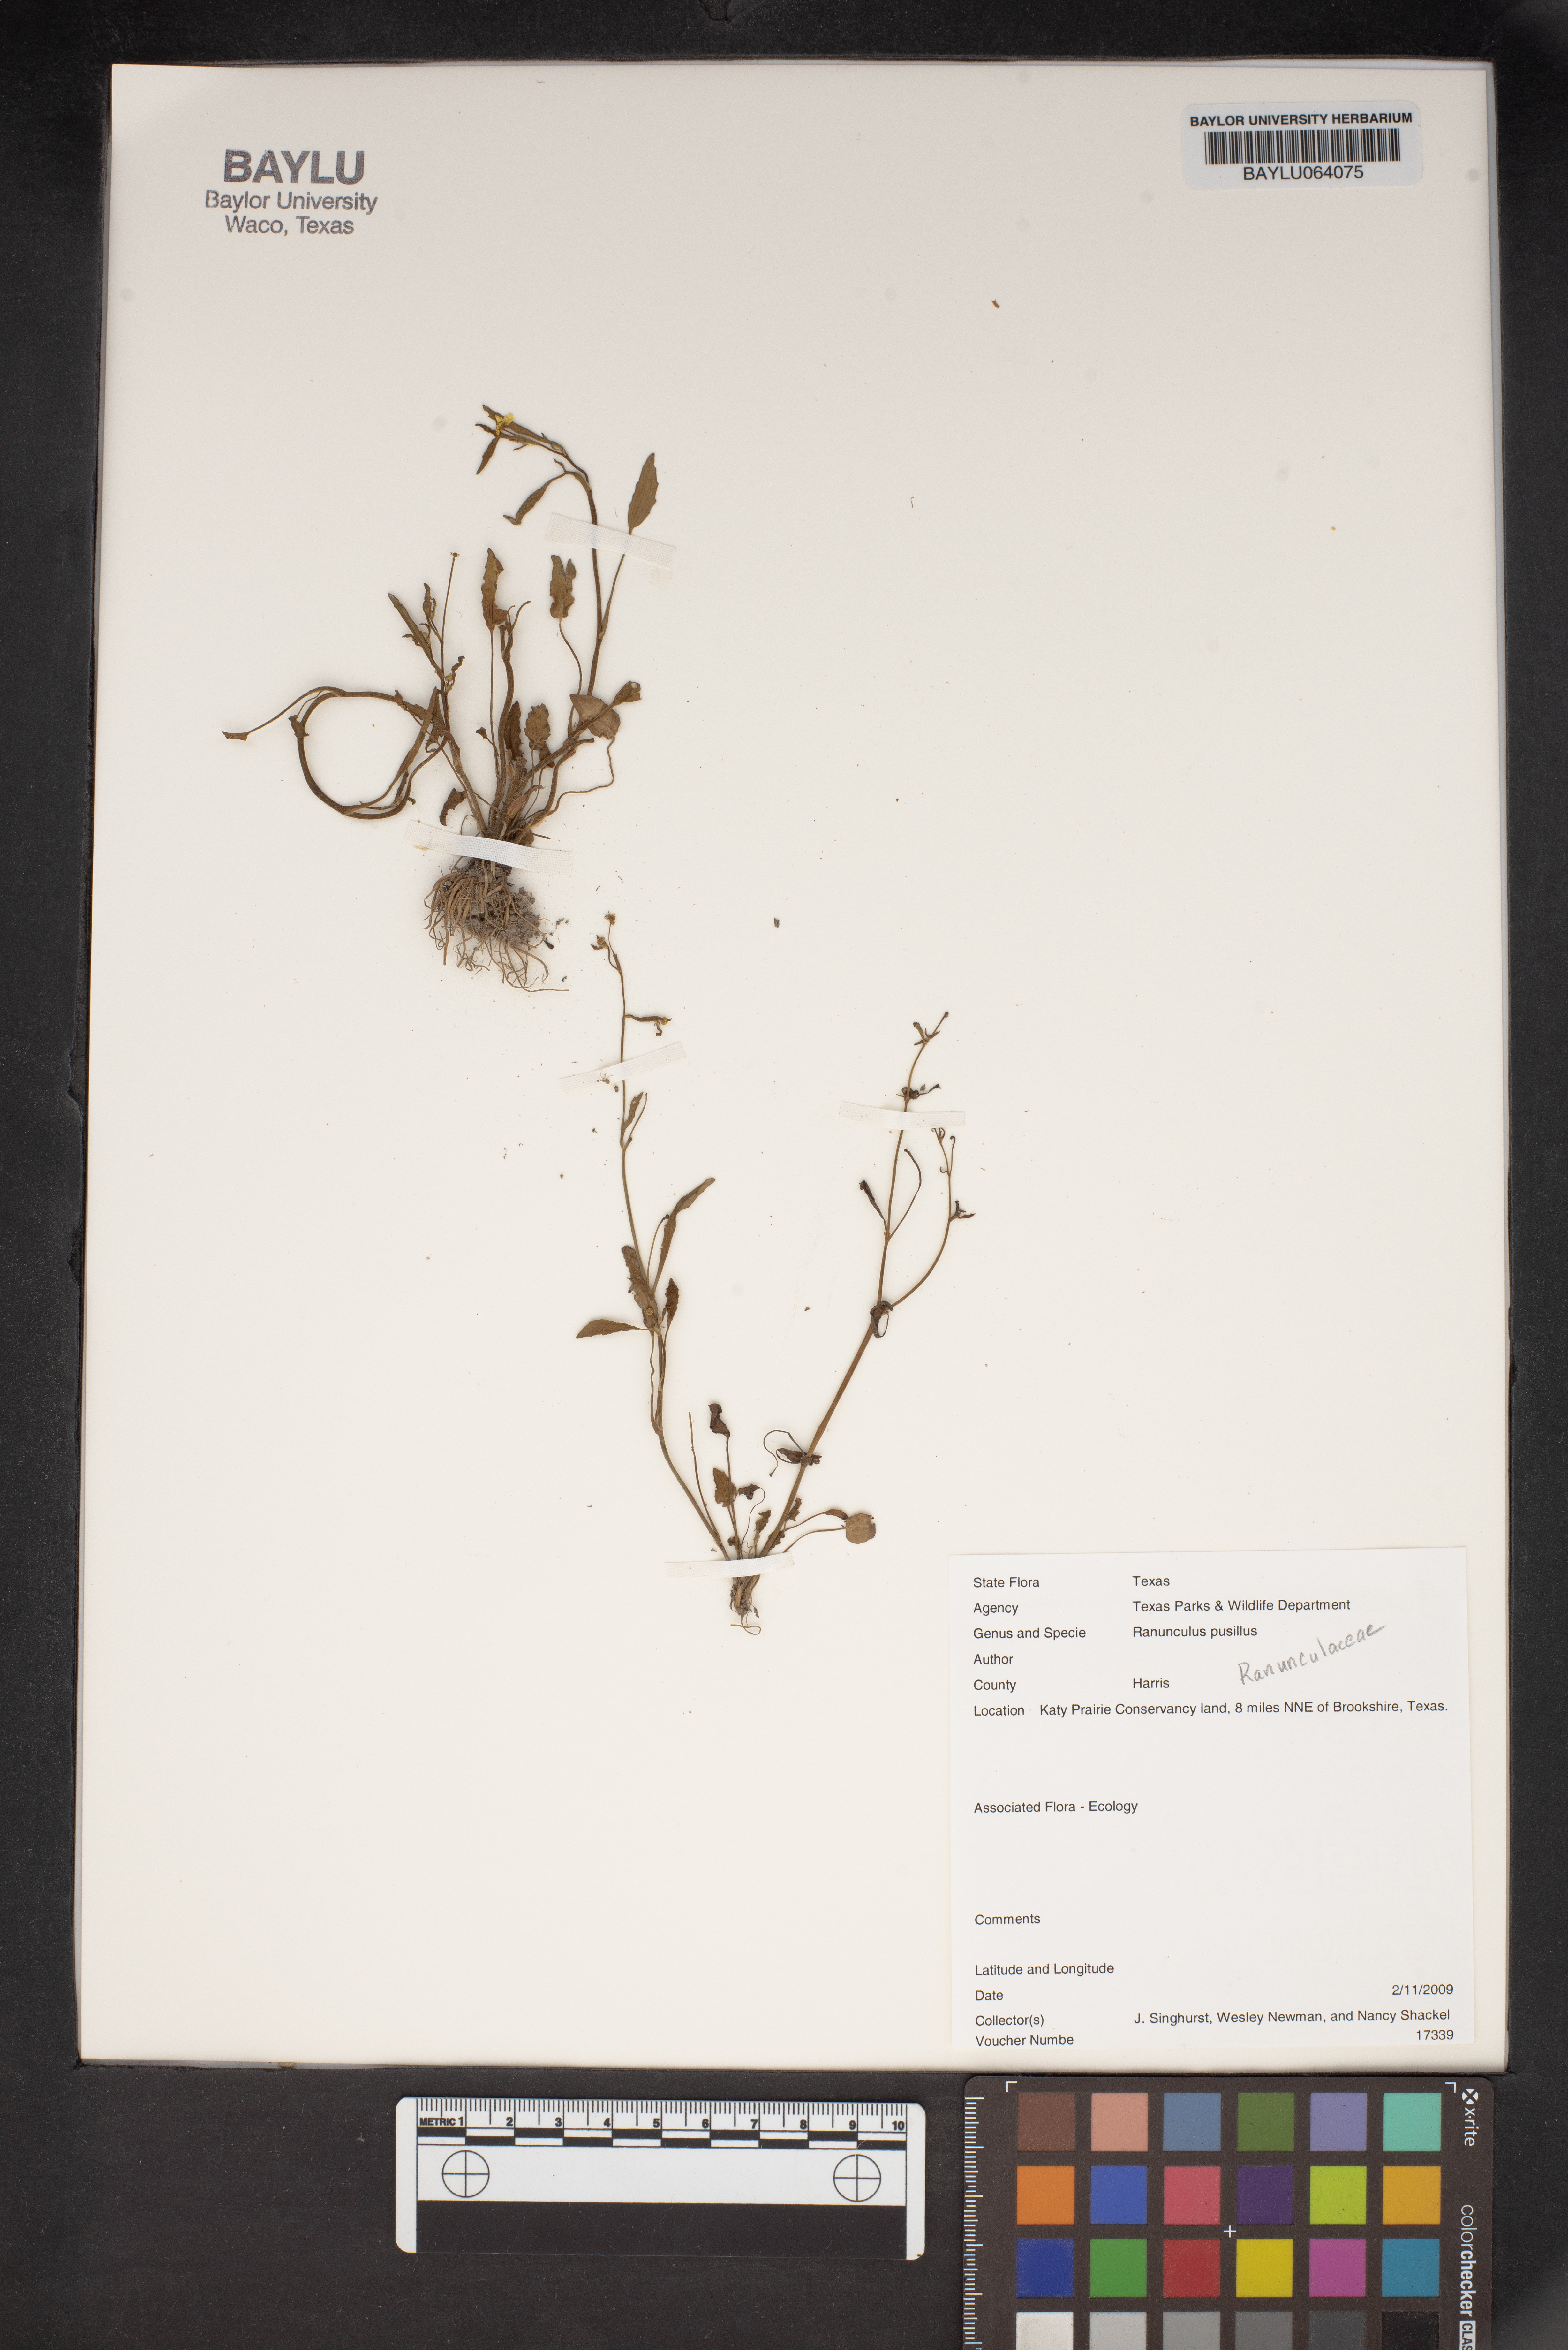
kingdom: Plantae
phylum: Tracheophyta
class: Magnoliopsida
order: Ranunculales
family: Ranunculaceae
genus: Ranunculus
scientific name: Ranunculus pusillus
